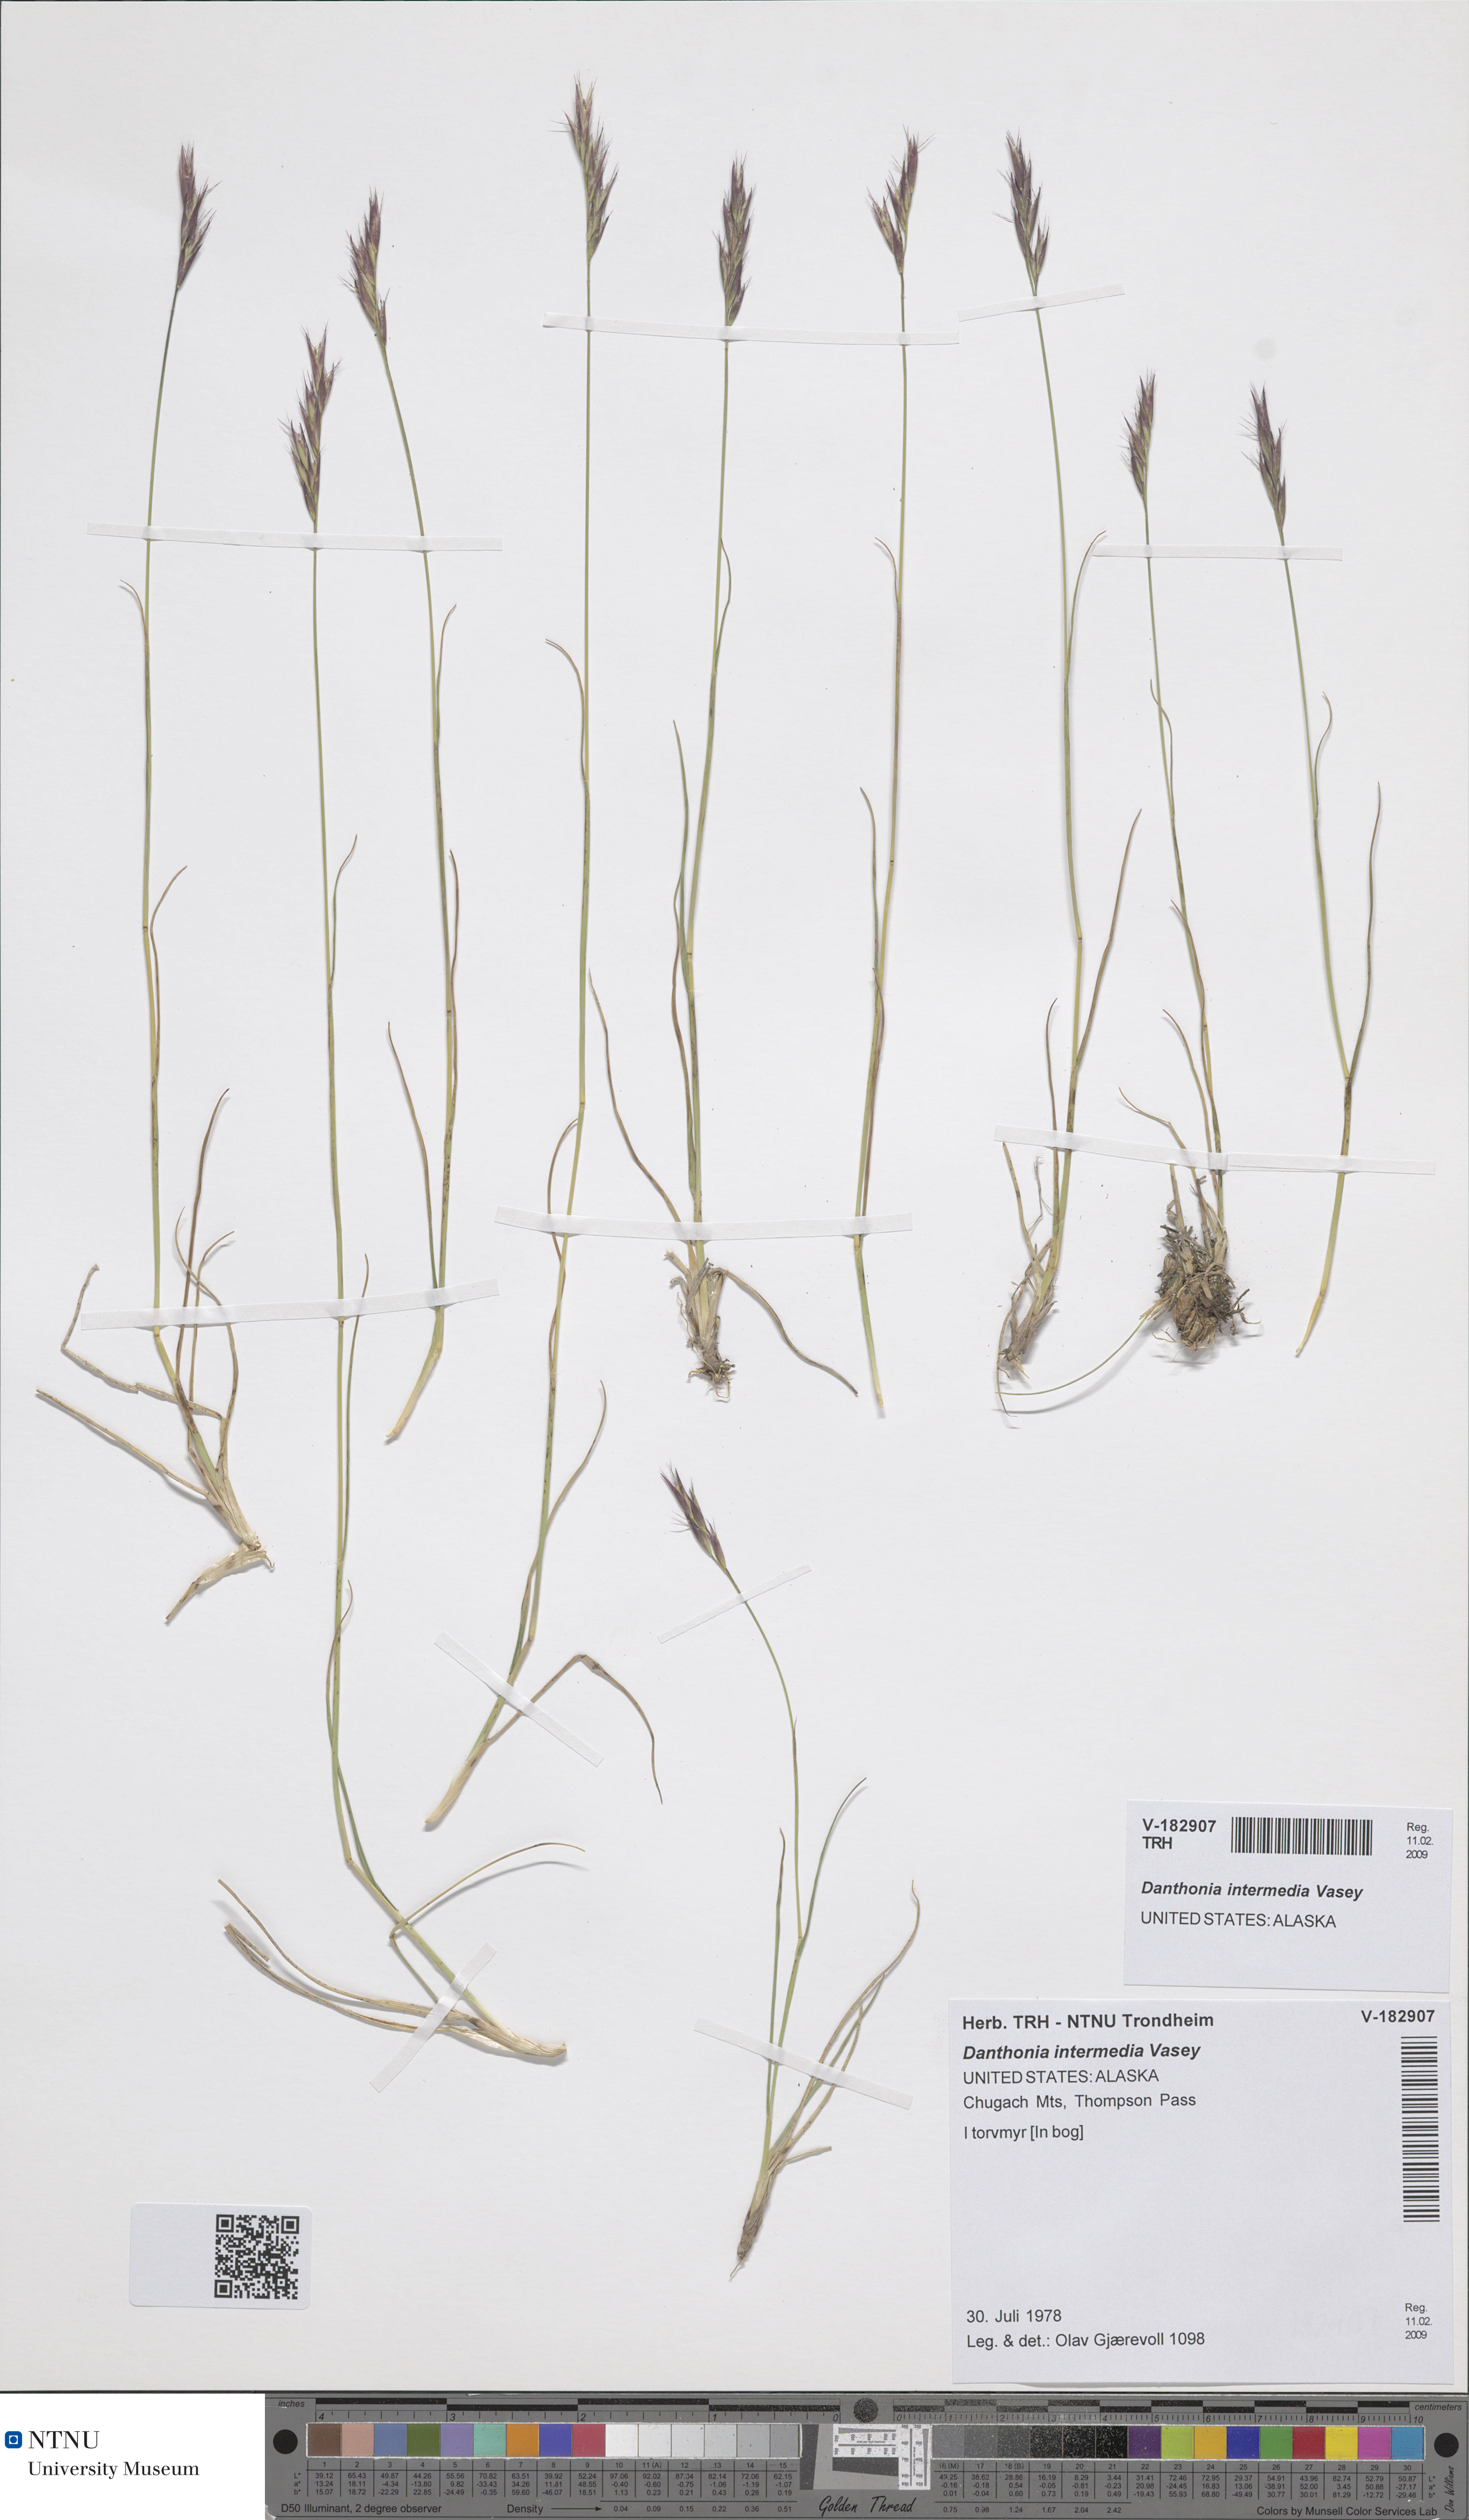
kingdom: Plantae
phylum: Tracheophyta
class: Liliopsida
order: Poales
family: Poaceae
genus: Danthonia
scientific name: Danthonia intermedia
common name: Intermediate oat grass
